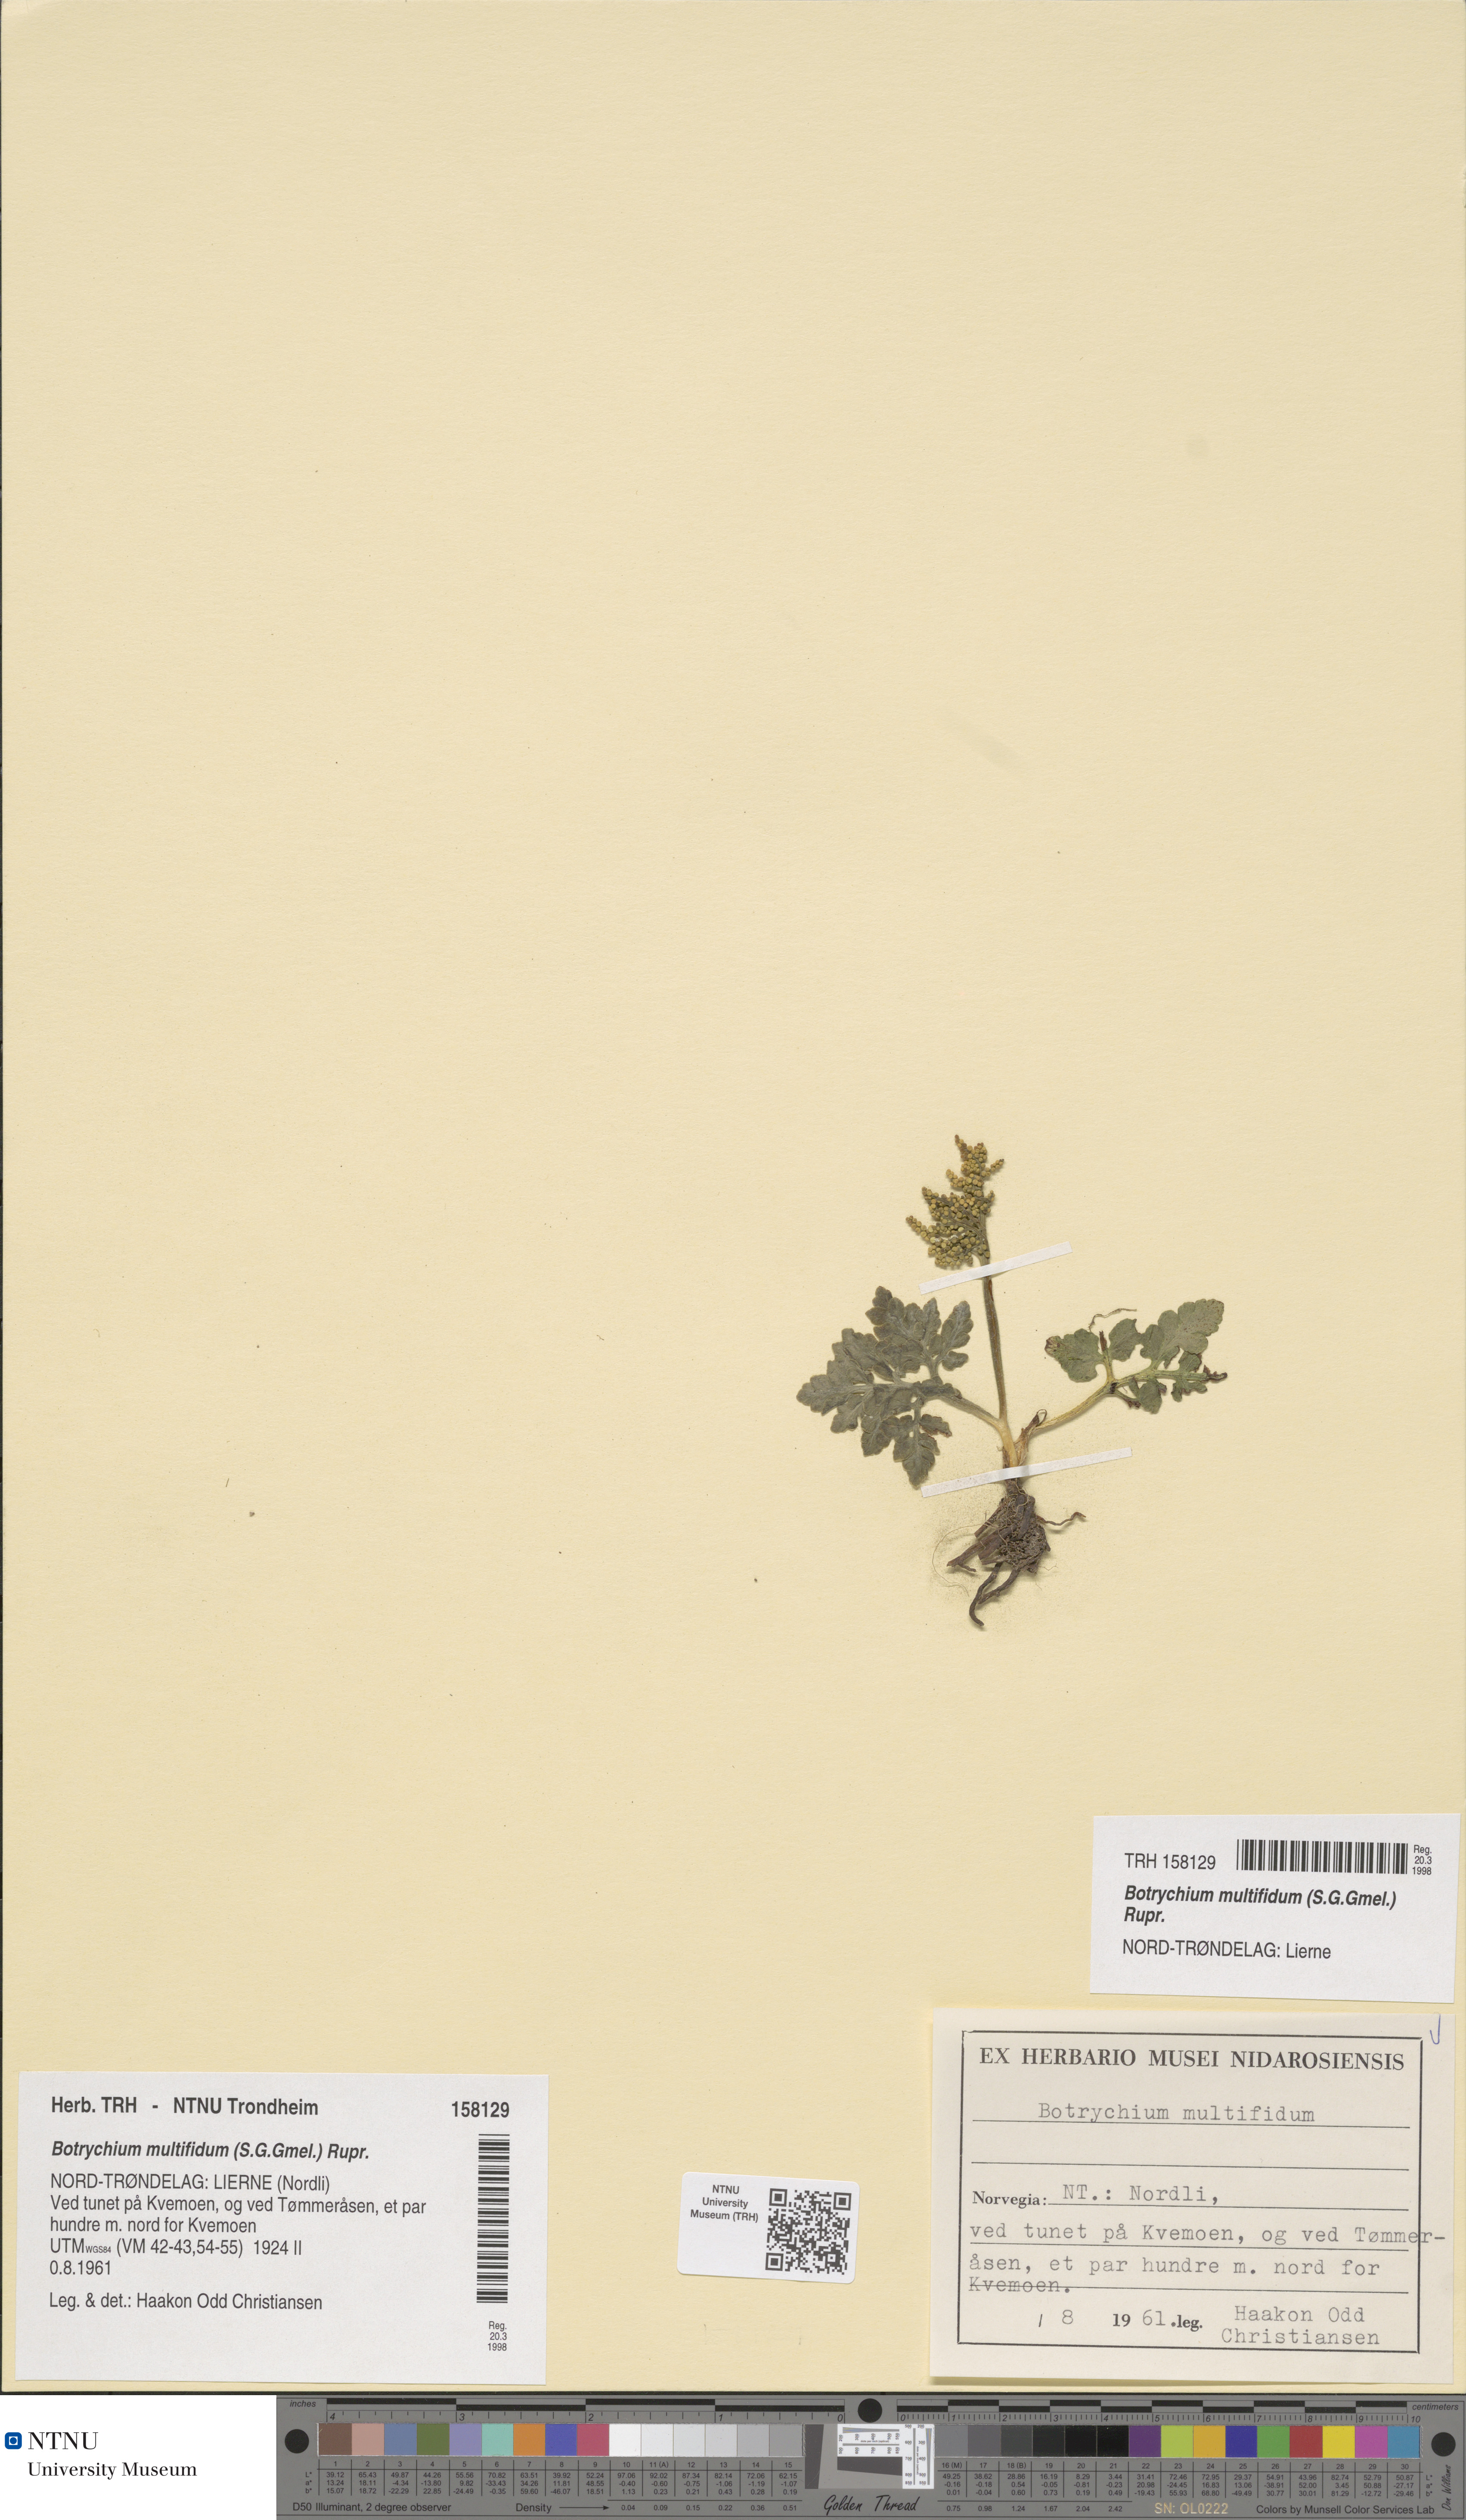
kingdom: Plantae
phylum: Tracheophyta
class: Polypodiopsida
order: Ophioglossales
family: Ophioglossaceae
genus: Sceptridium
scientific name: Sceptridium multifidum
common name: Leathery grape fern
